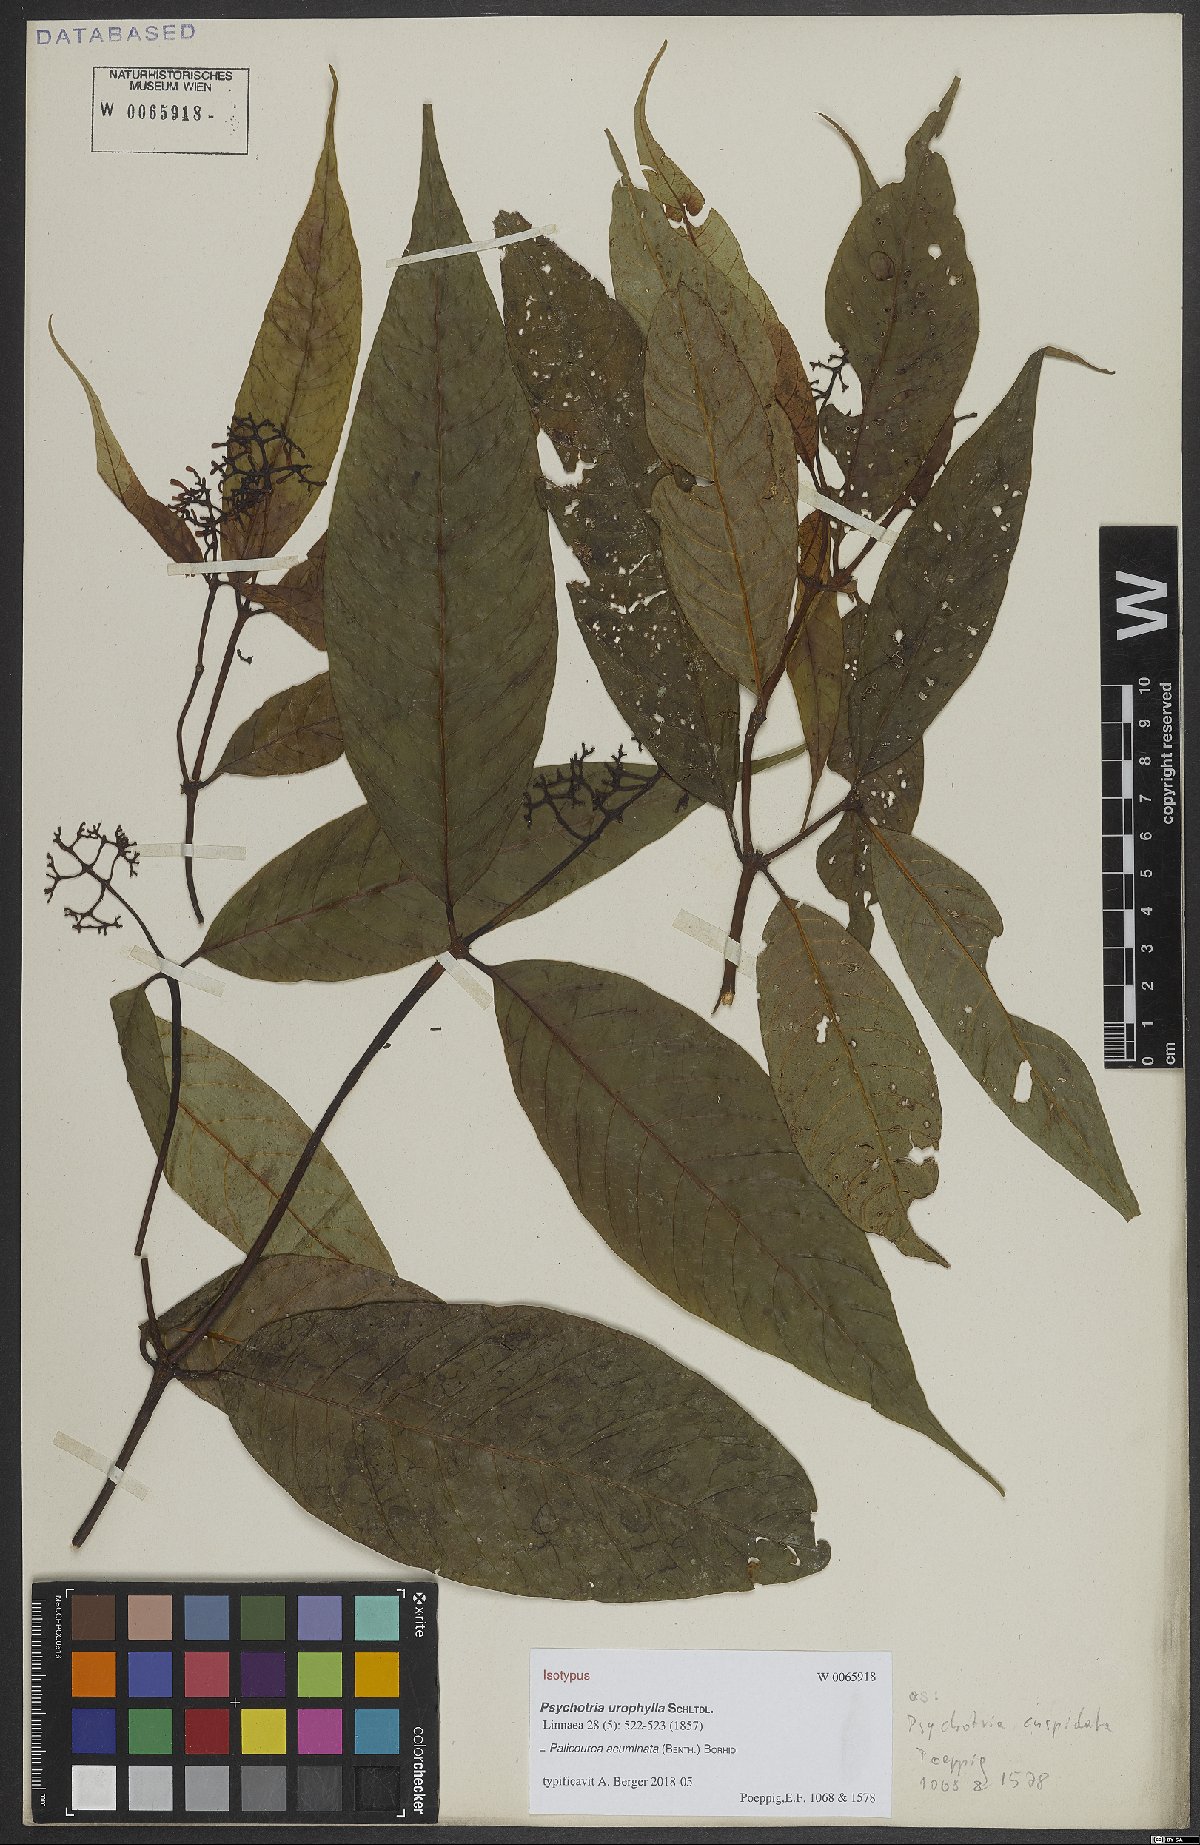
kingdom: Plantae
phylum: Tracheophyta
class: Magnoliopsida
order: Gentianales
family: Rubiaceae
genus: Palicourea
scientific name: Palicourea acuminata
